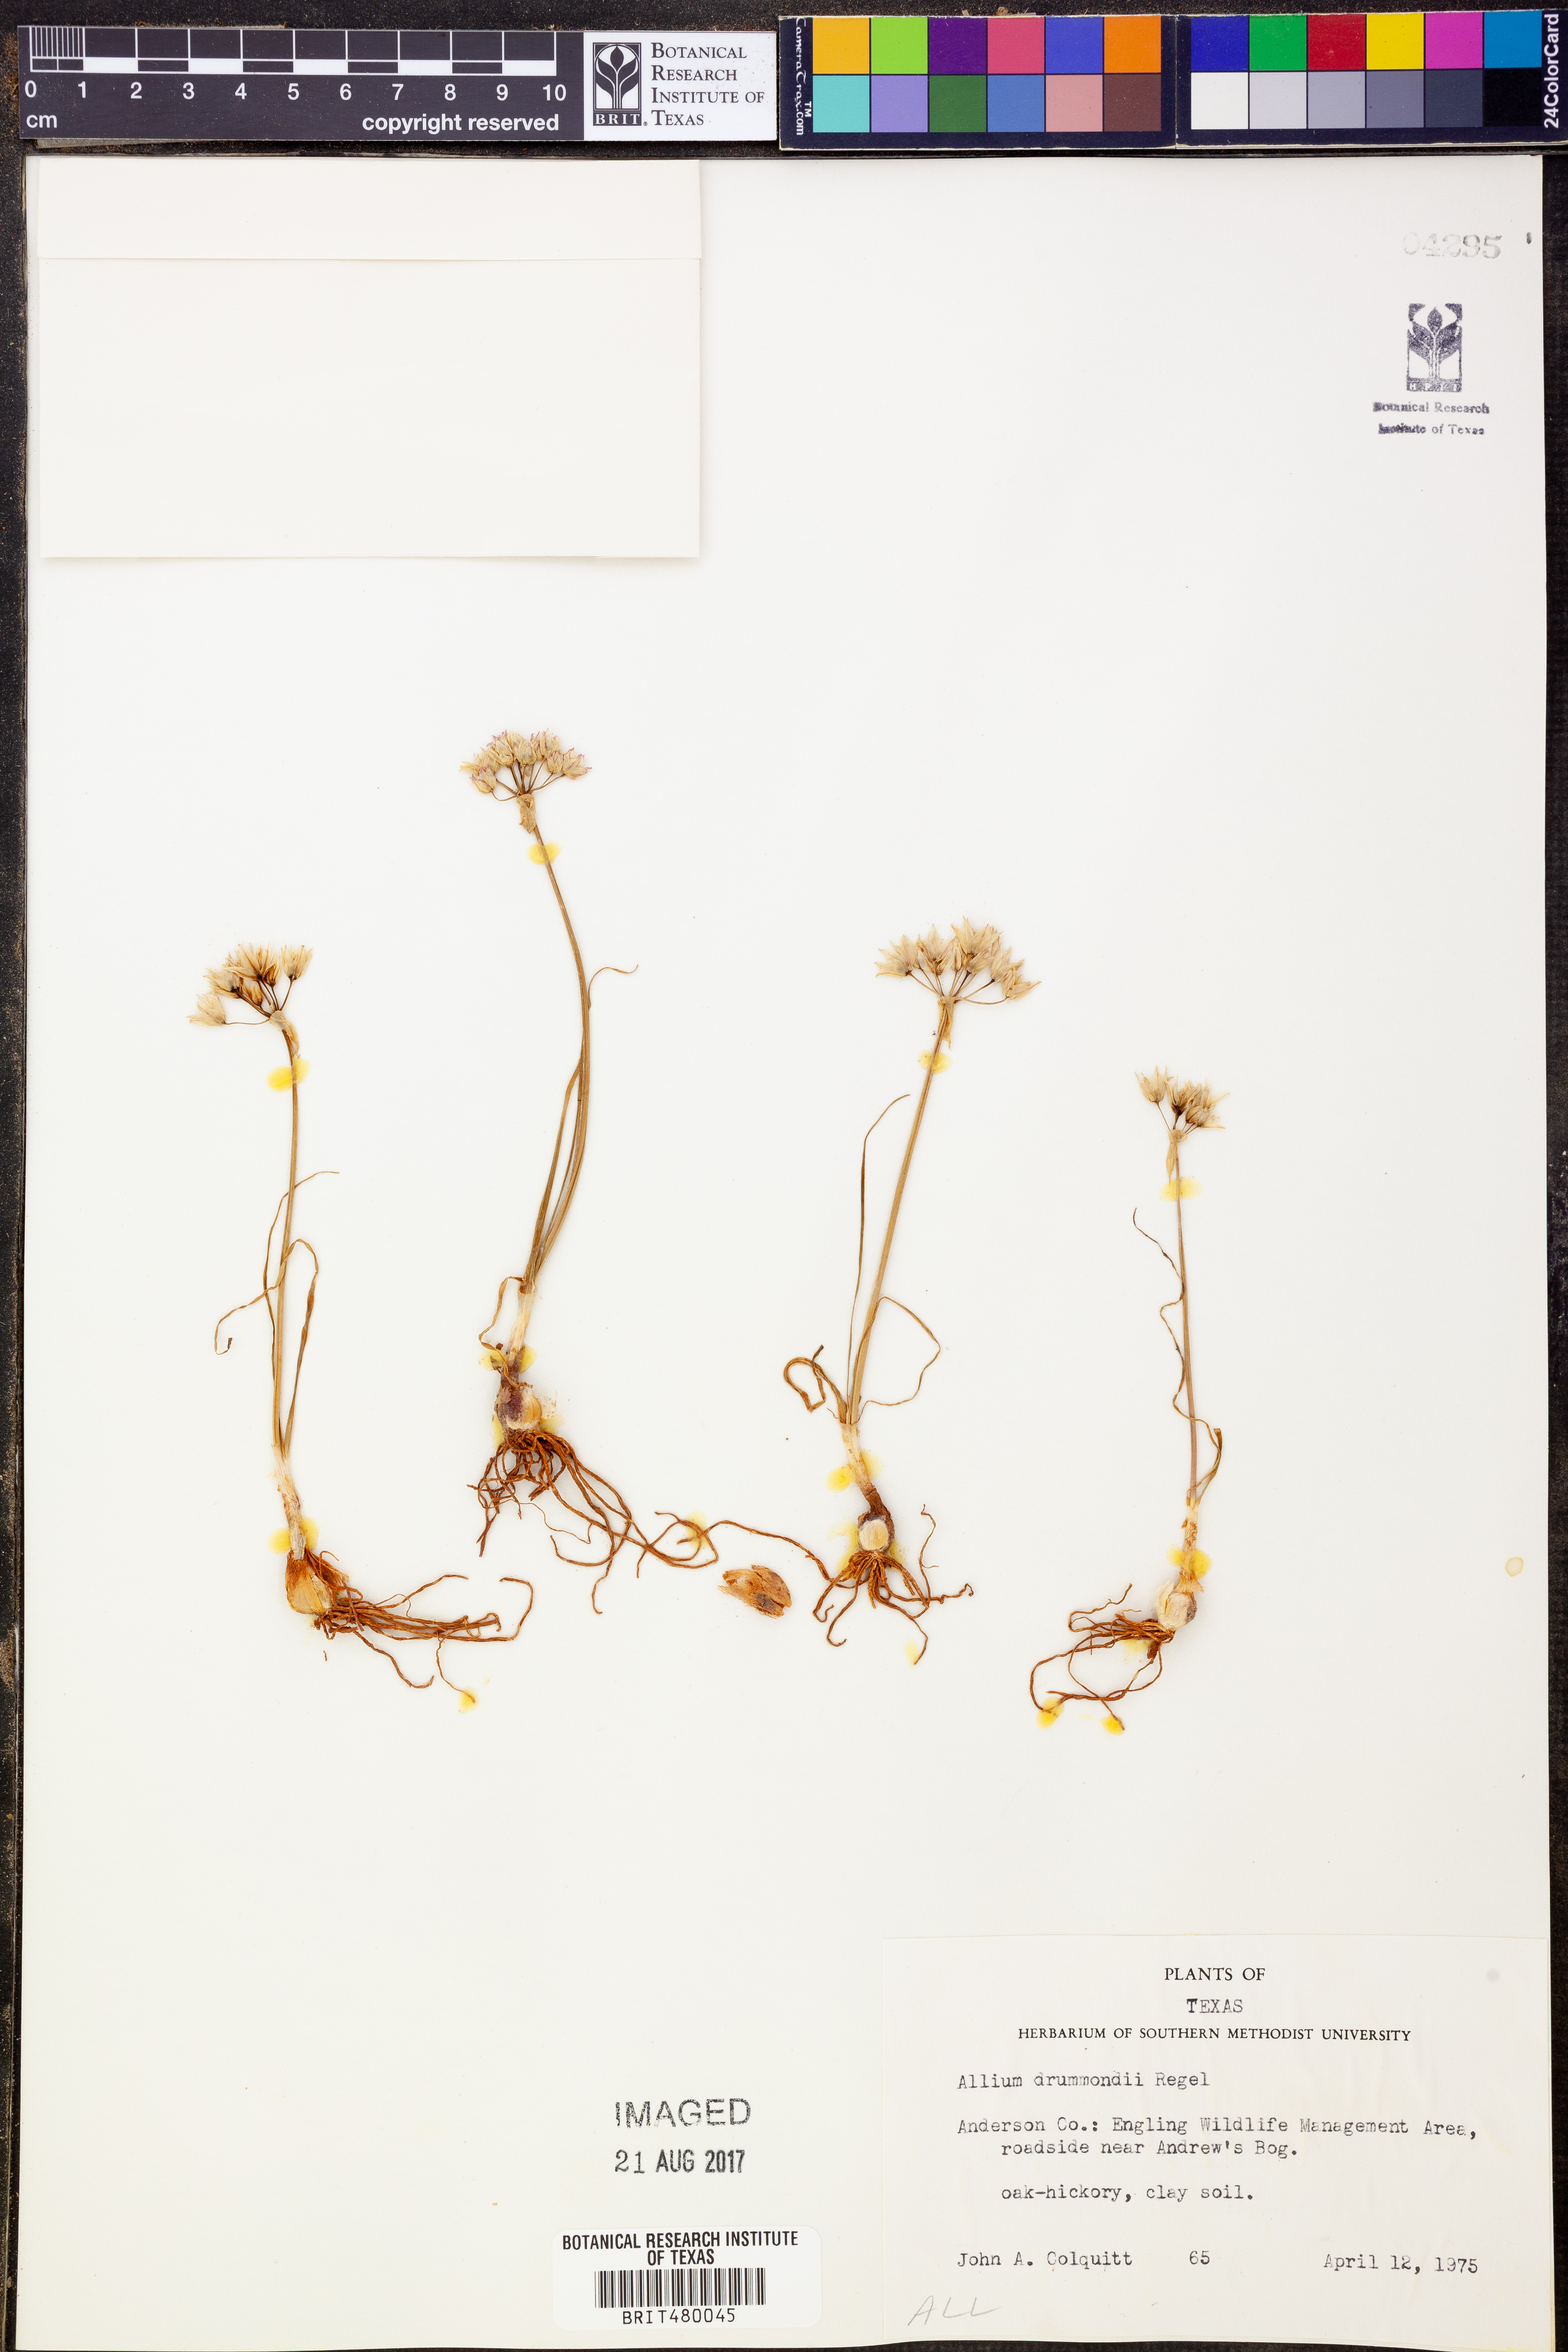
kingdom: Plantae
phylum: Tracheophyta
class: Liliopsida
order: Asparagales
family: Amaryllidaceae
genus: Allium
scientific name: Allium drummondii
